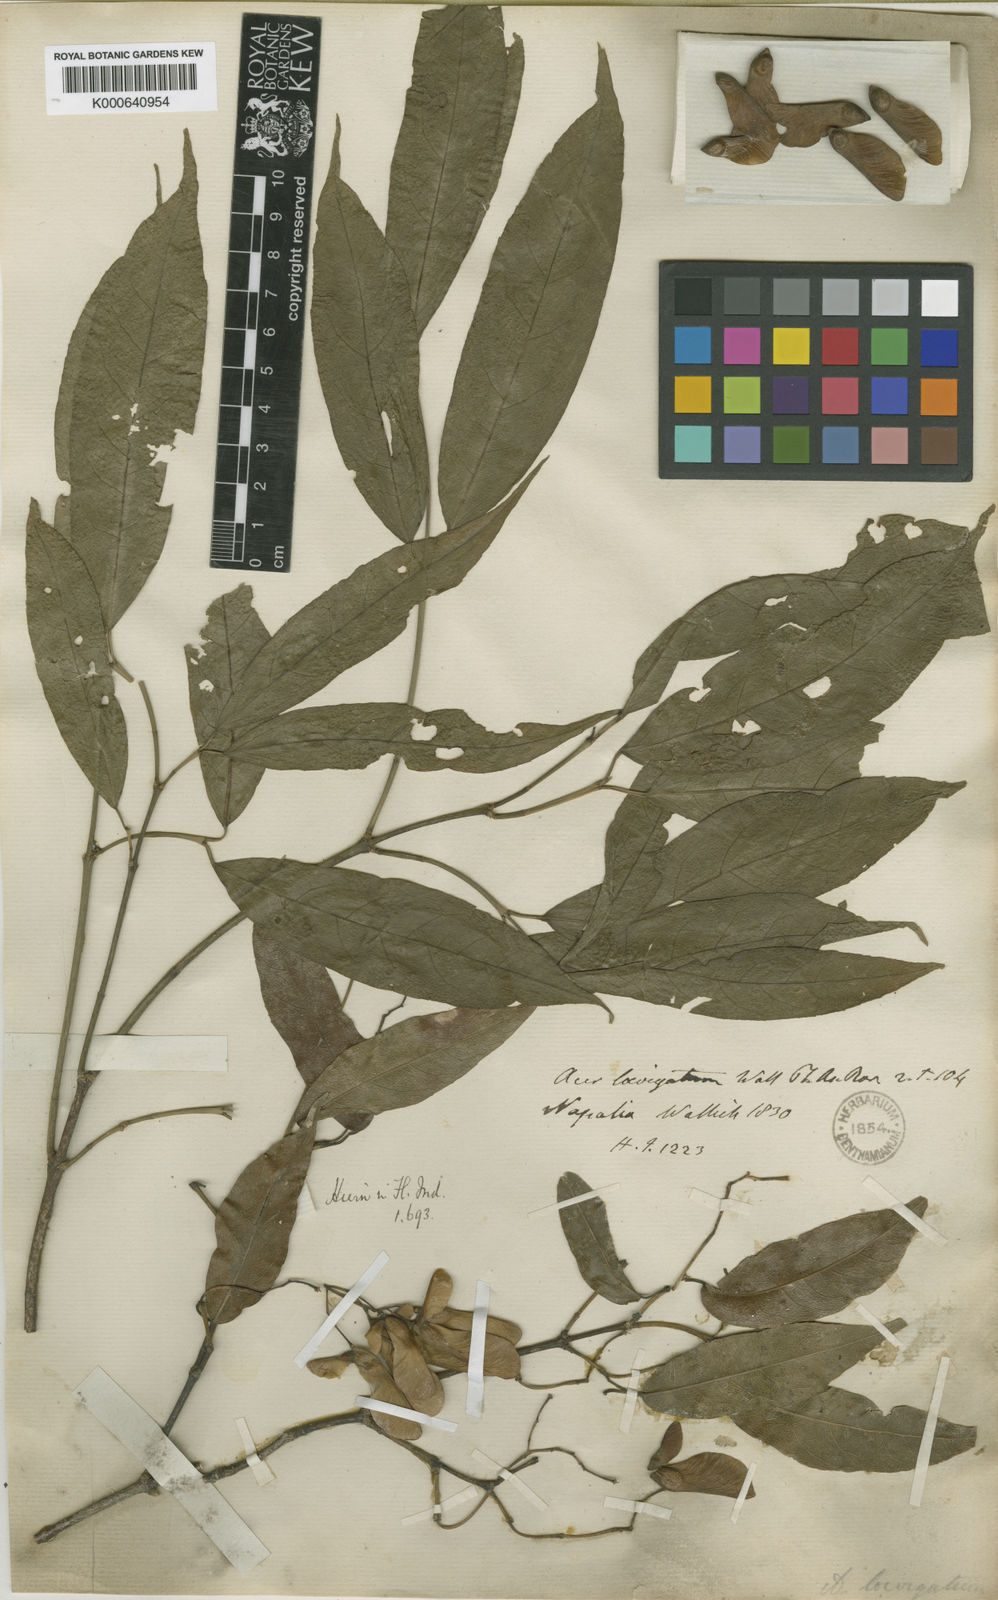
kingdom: Plantae
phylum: Tracheophyta
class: Magnoliopsida
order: Sapindales
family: Sapindaceae
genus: Acer
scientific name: Acer laevigatum
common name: Nepal maple
